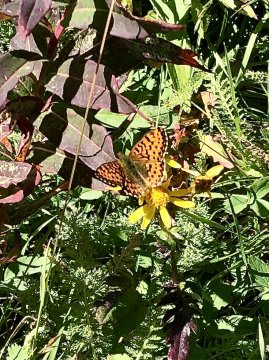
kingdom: Animalia
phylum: Arthropoda
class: Insecta
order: Lepidoptera
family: Nymphalidae
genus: Boloria
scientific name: Boloria chariclea
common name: Arctic Fritillary
